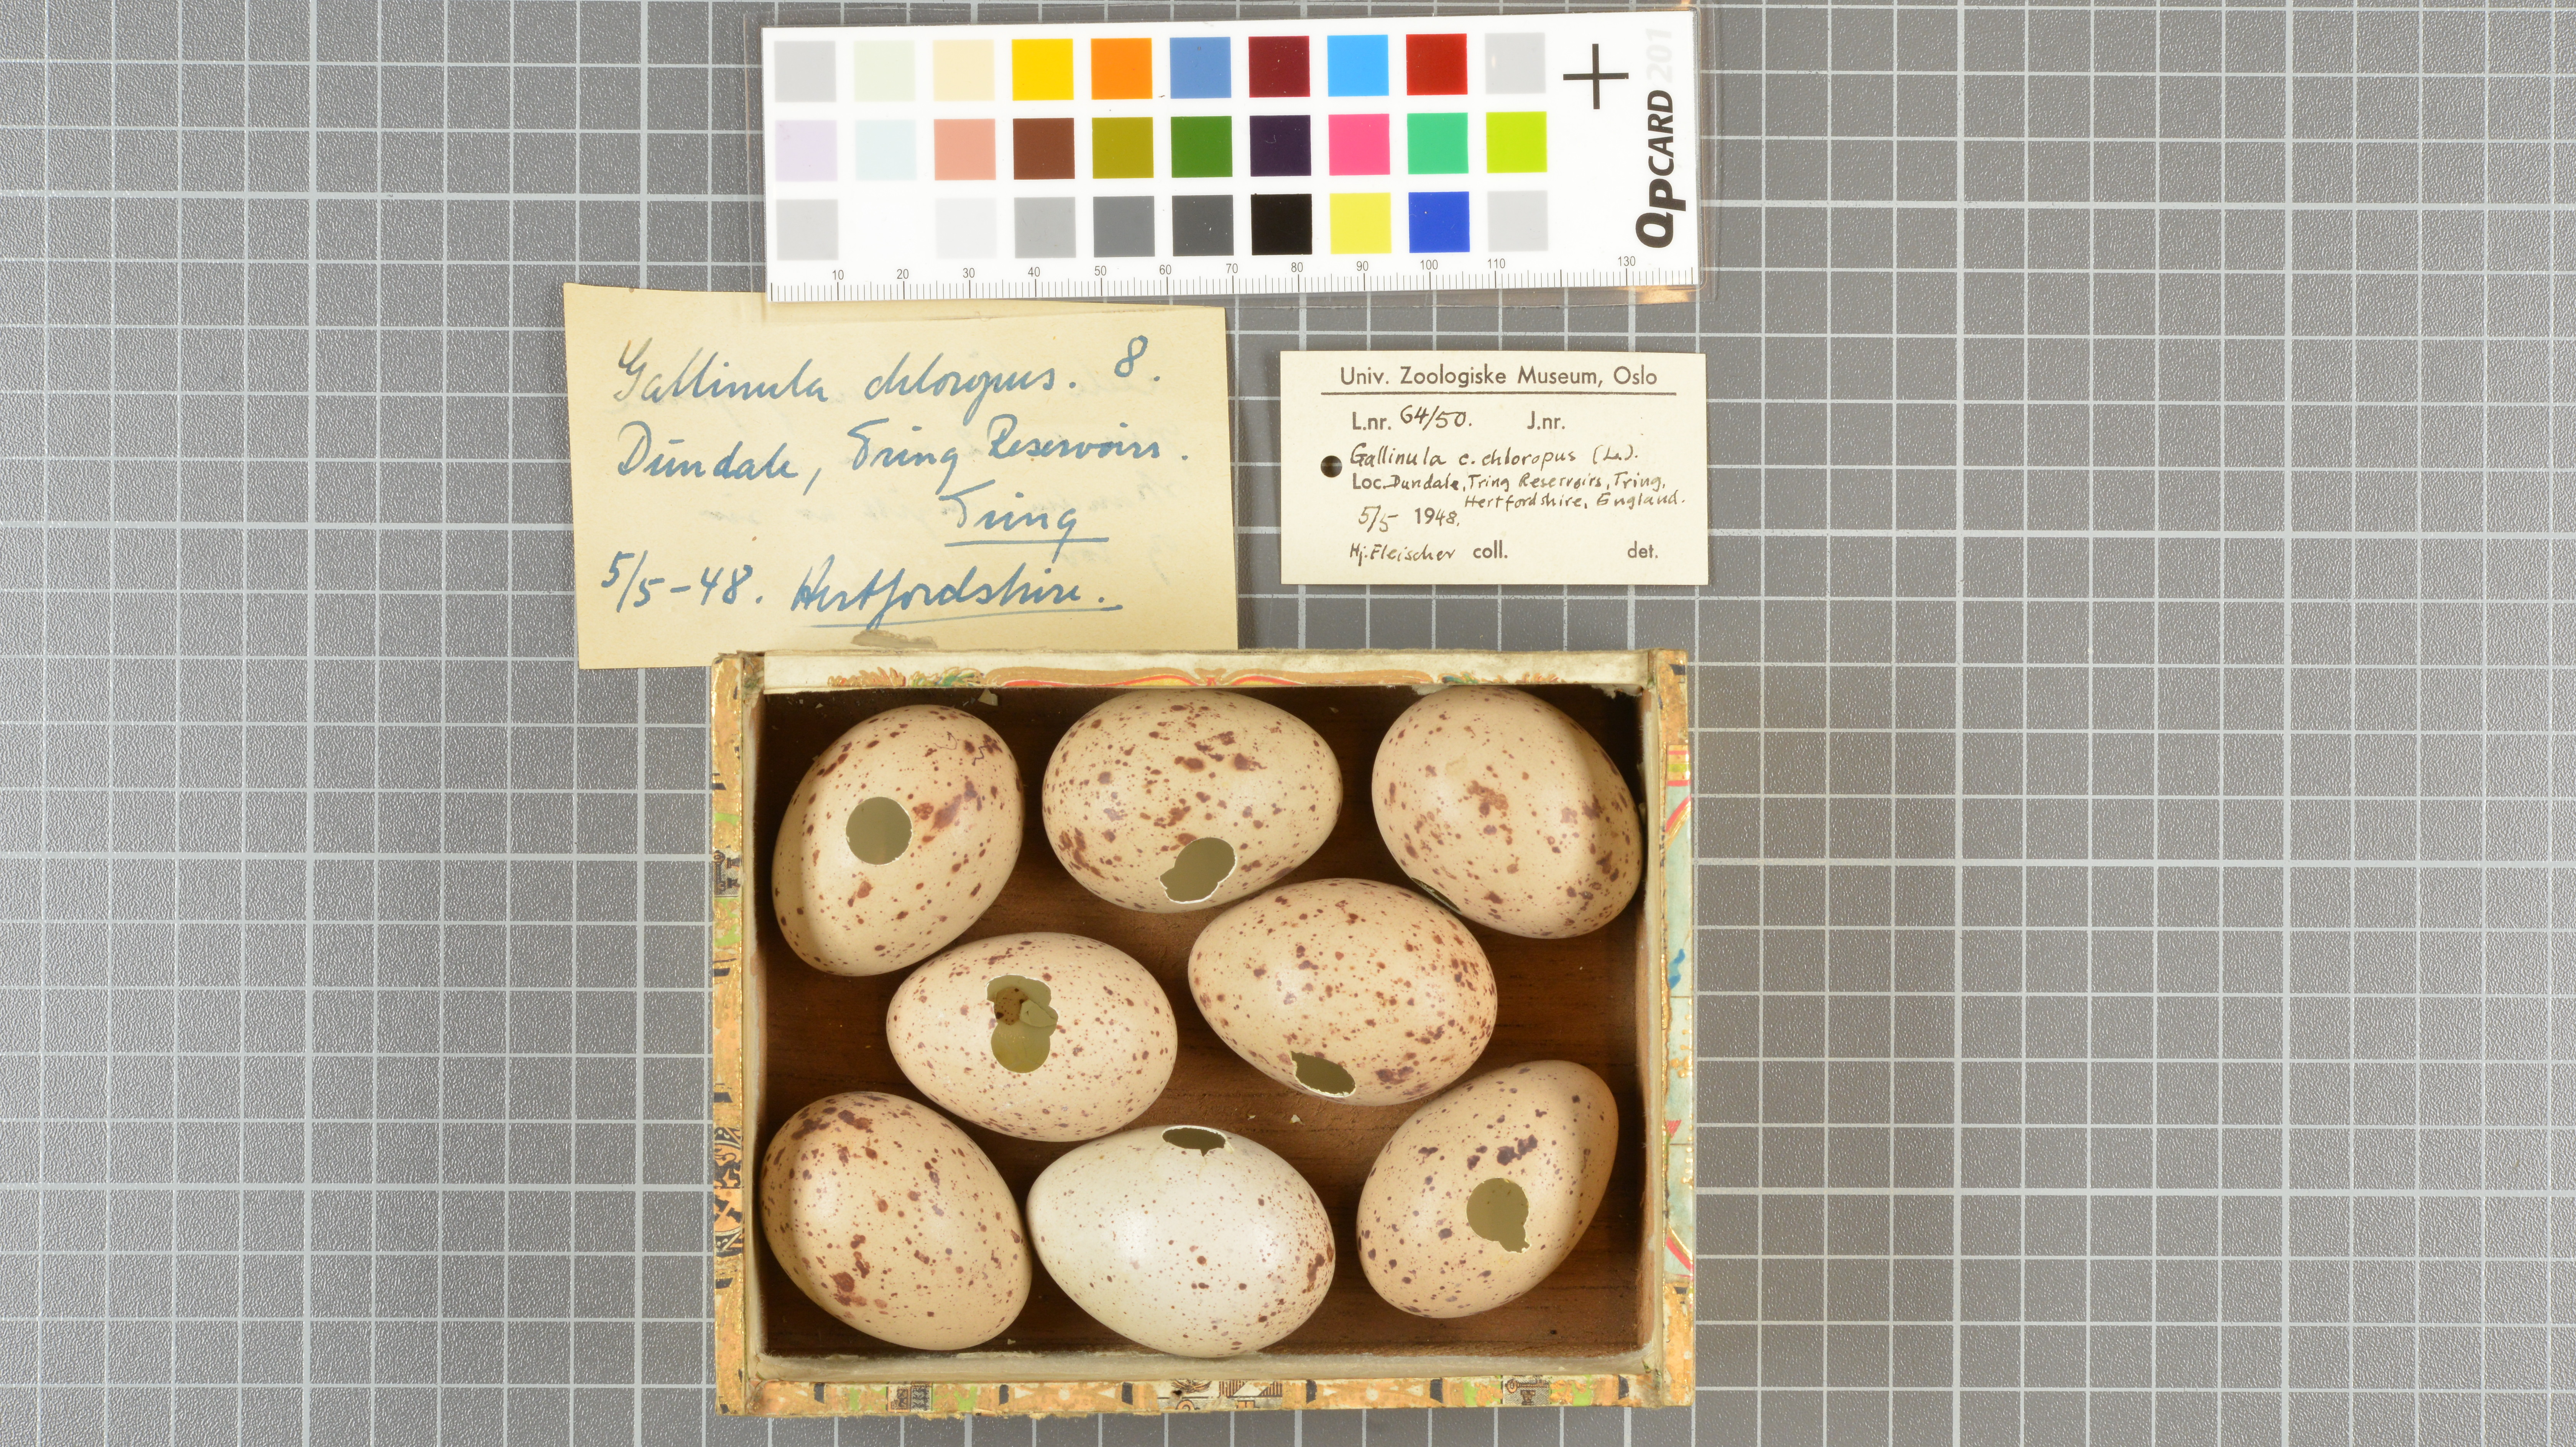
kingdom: Animalia
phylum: Chordata
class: Aves
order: Gruiformes
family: Rallidae
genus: Gallinula
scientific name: Gallinula chloropus
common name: Common moorhen
